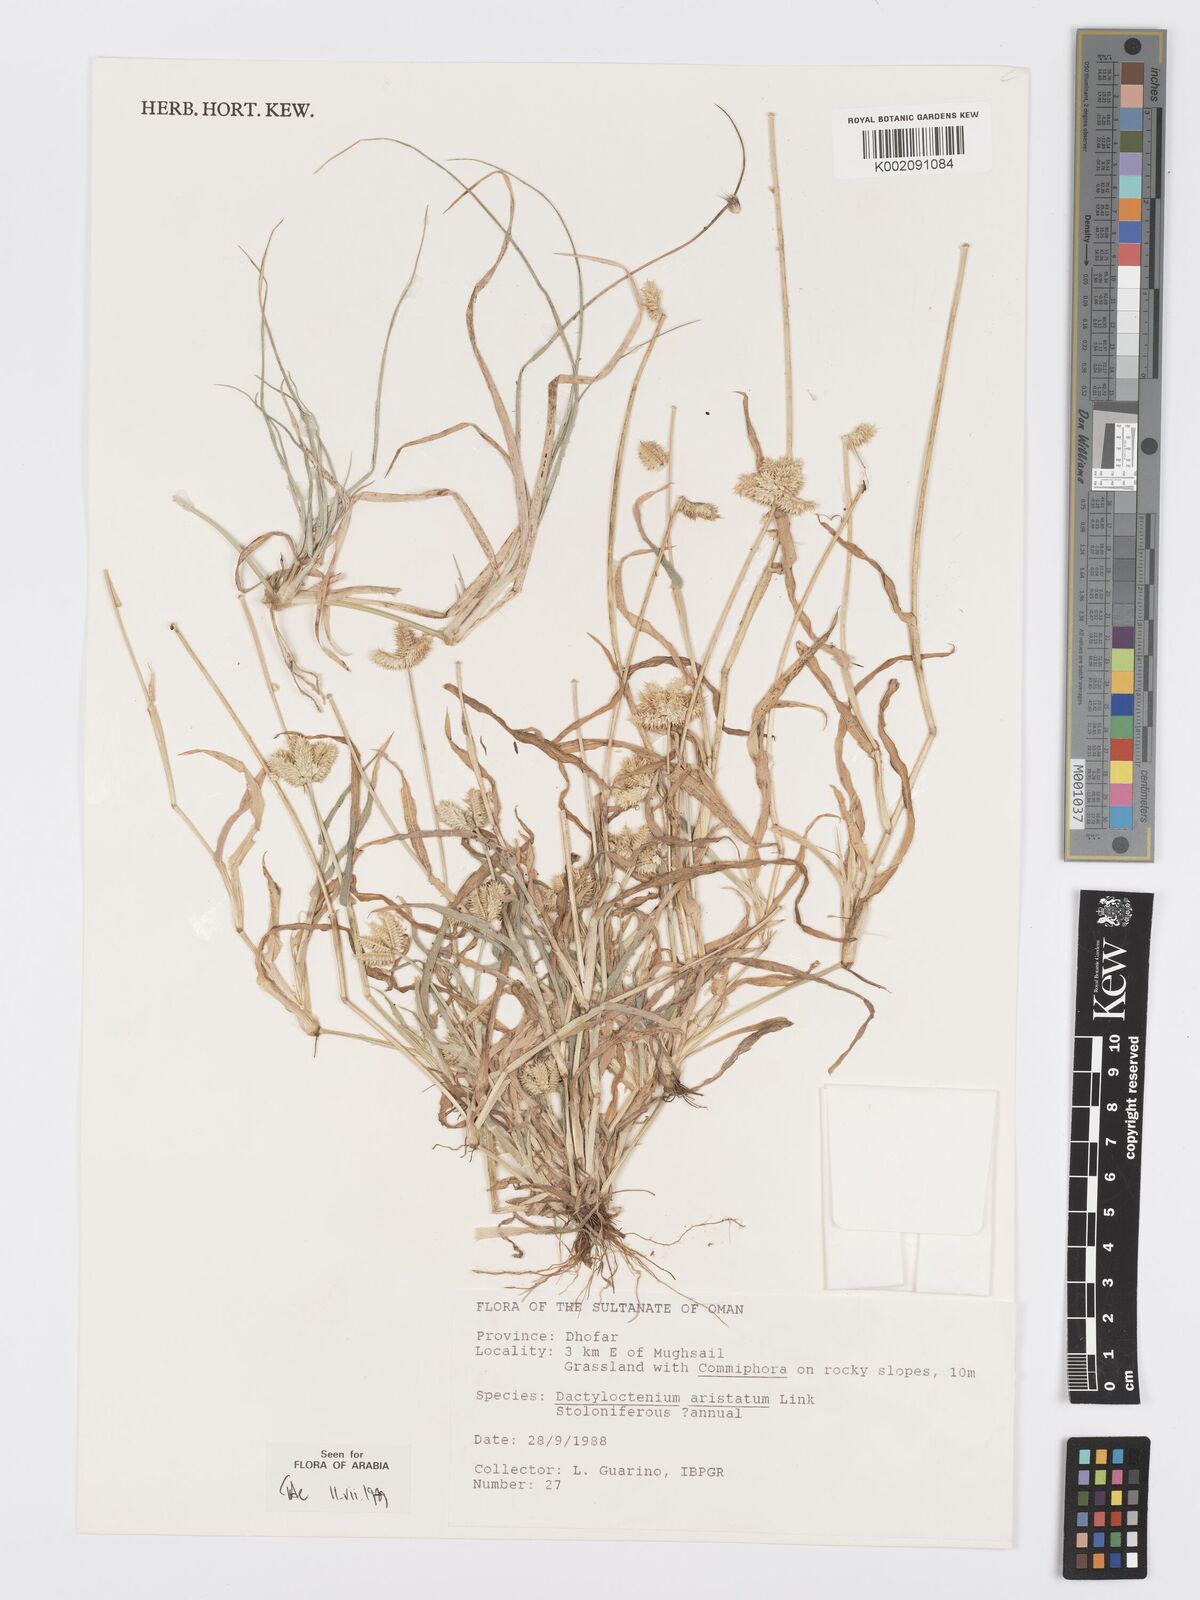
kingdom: Plantae
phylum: Tracheophyta
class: Liliopsida
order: Poales
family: Poaceae
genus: Dactyloctenium
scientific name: Dactyloctenium aristatum
